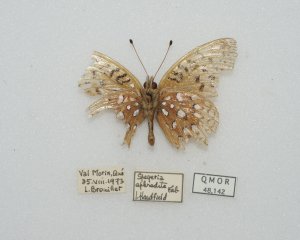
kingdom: Animalia
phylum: Arthropoda
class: Insecta
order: Lepidoptera
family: Nymphalidae
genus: Speyeria
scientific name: Speyeria aphrodite
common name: Aphrodite Fritillary
